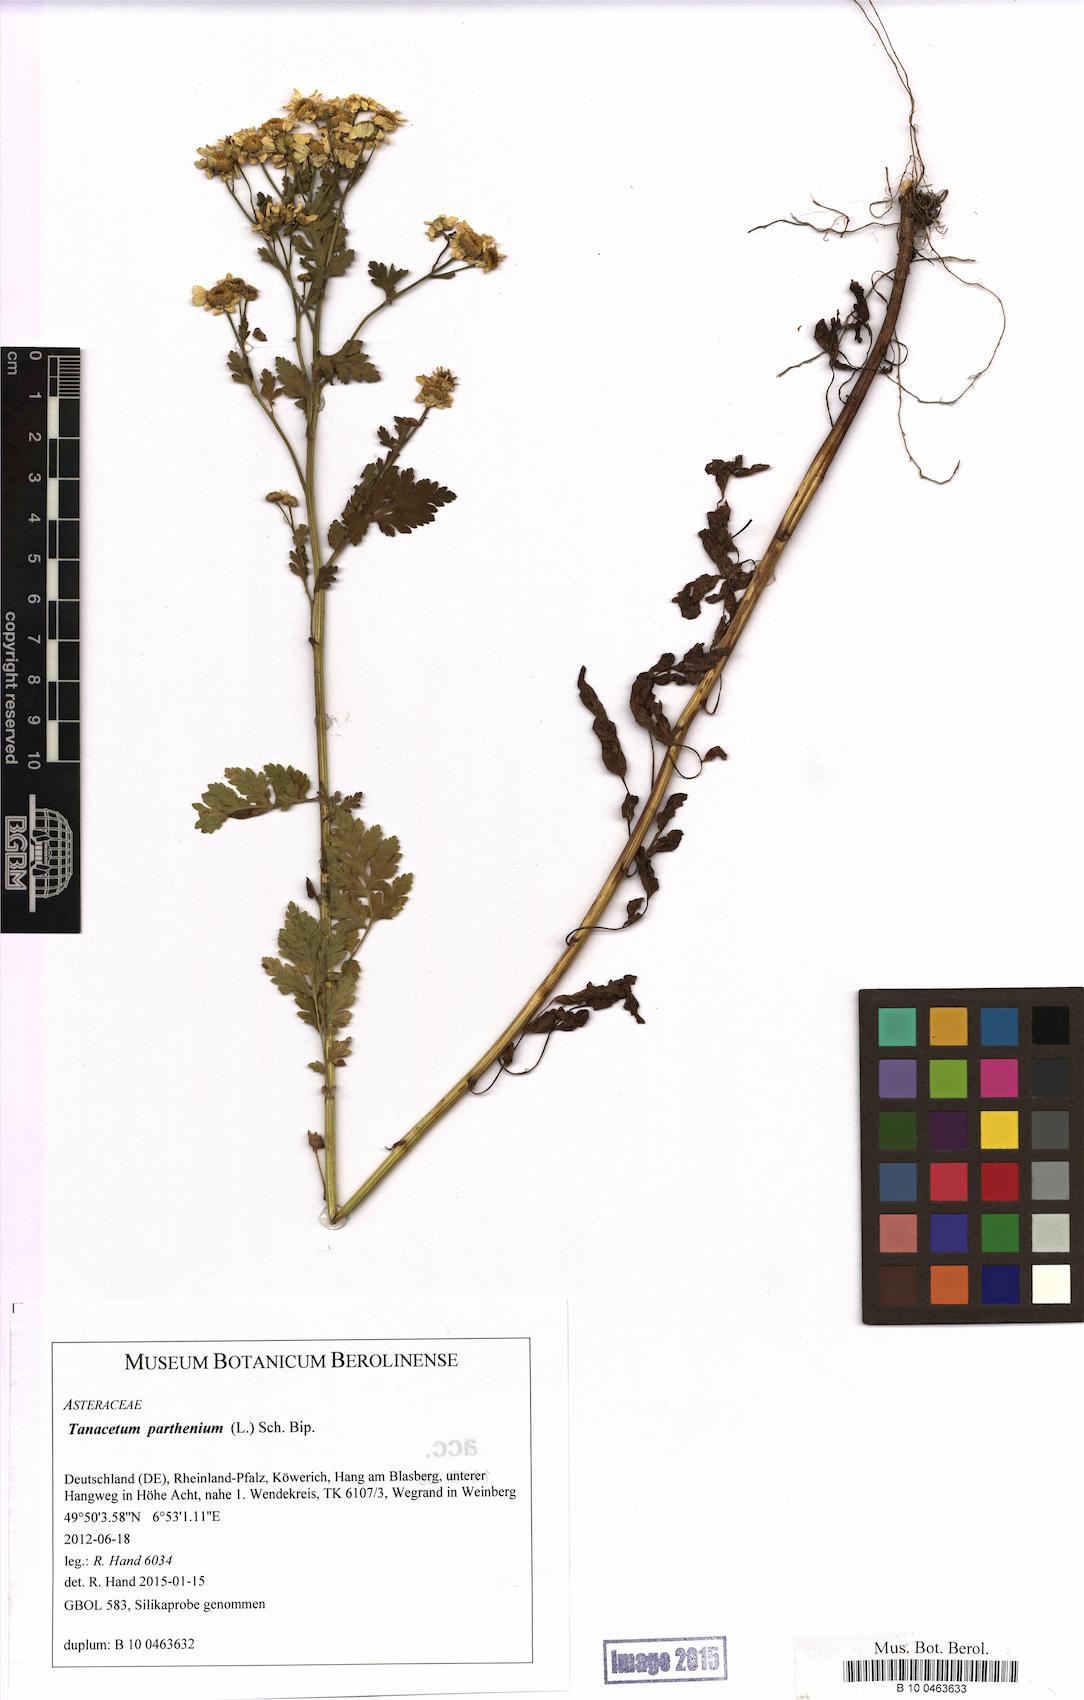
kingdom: Plantae
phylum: Tracheophyta
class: Magnoliopsida
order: Asterales
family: Asteraceae
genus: Tanacetum
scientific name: Tanacetum parthenium
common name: Feverfew
